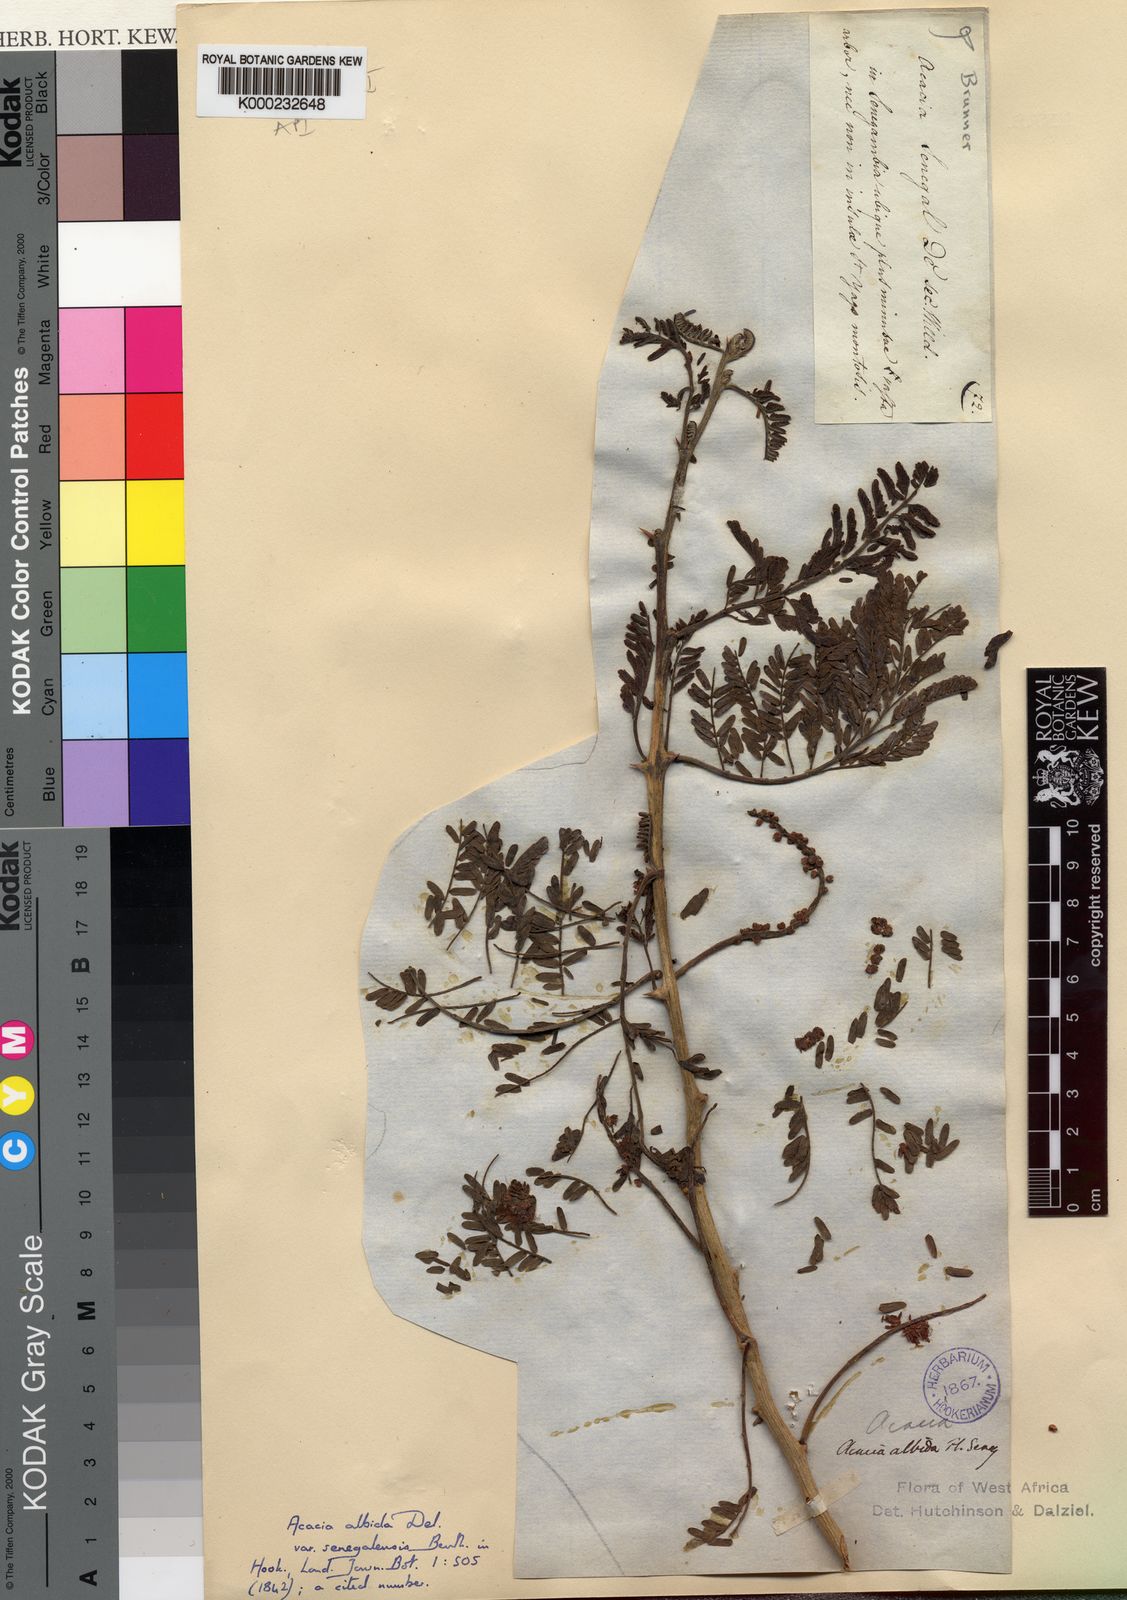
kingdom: Plantae
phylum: Tracheophyta
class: Magnoliopsida
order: Fabales
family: Fabaceae
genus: Faidherbia
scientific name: Faidherbia albida
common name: Anatree
